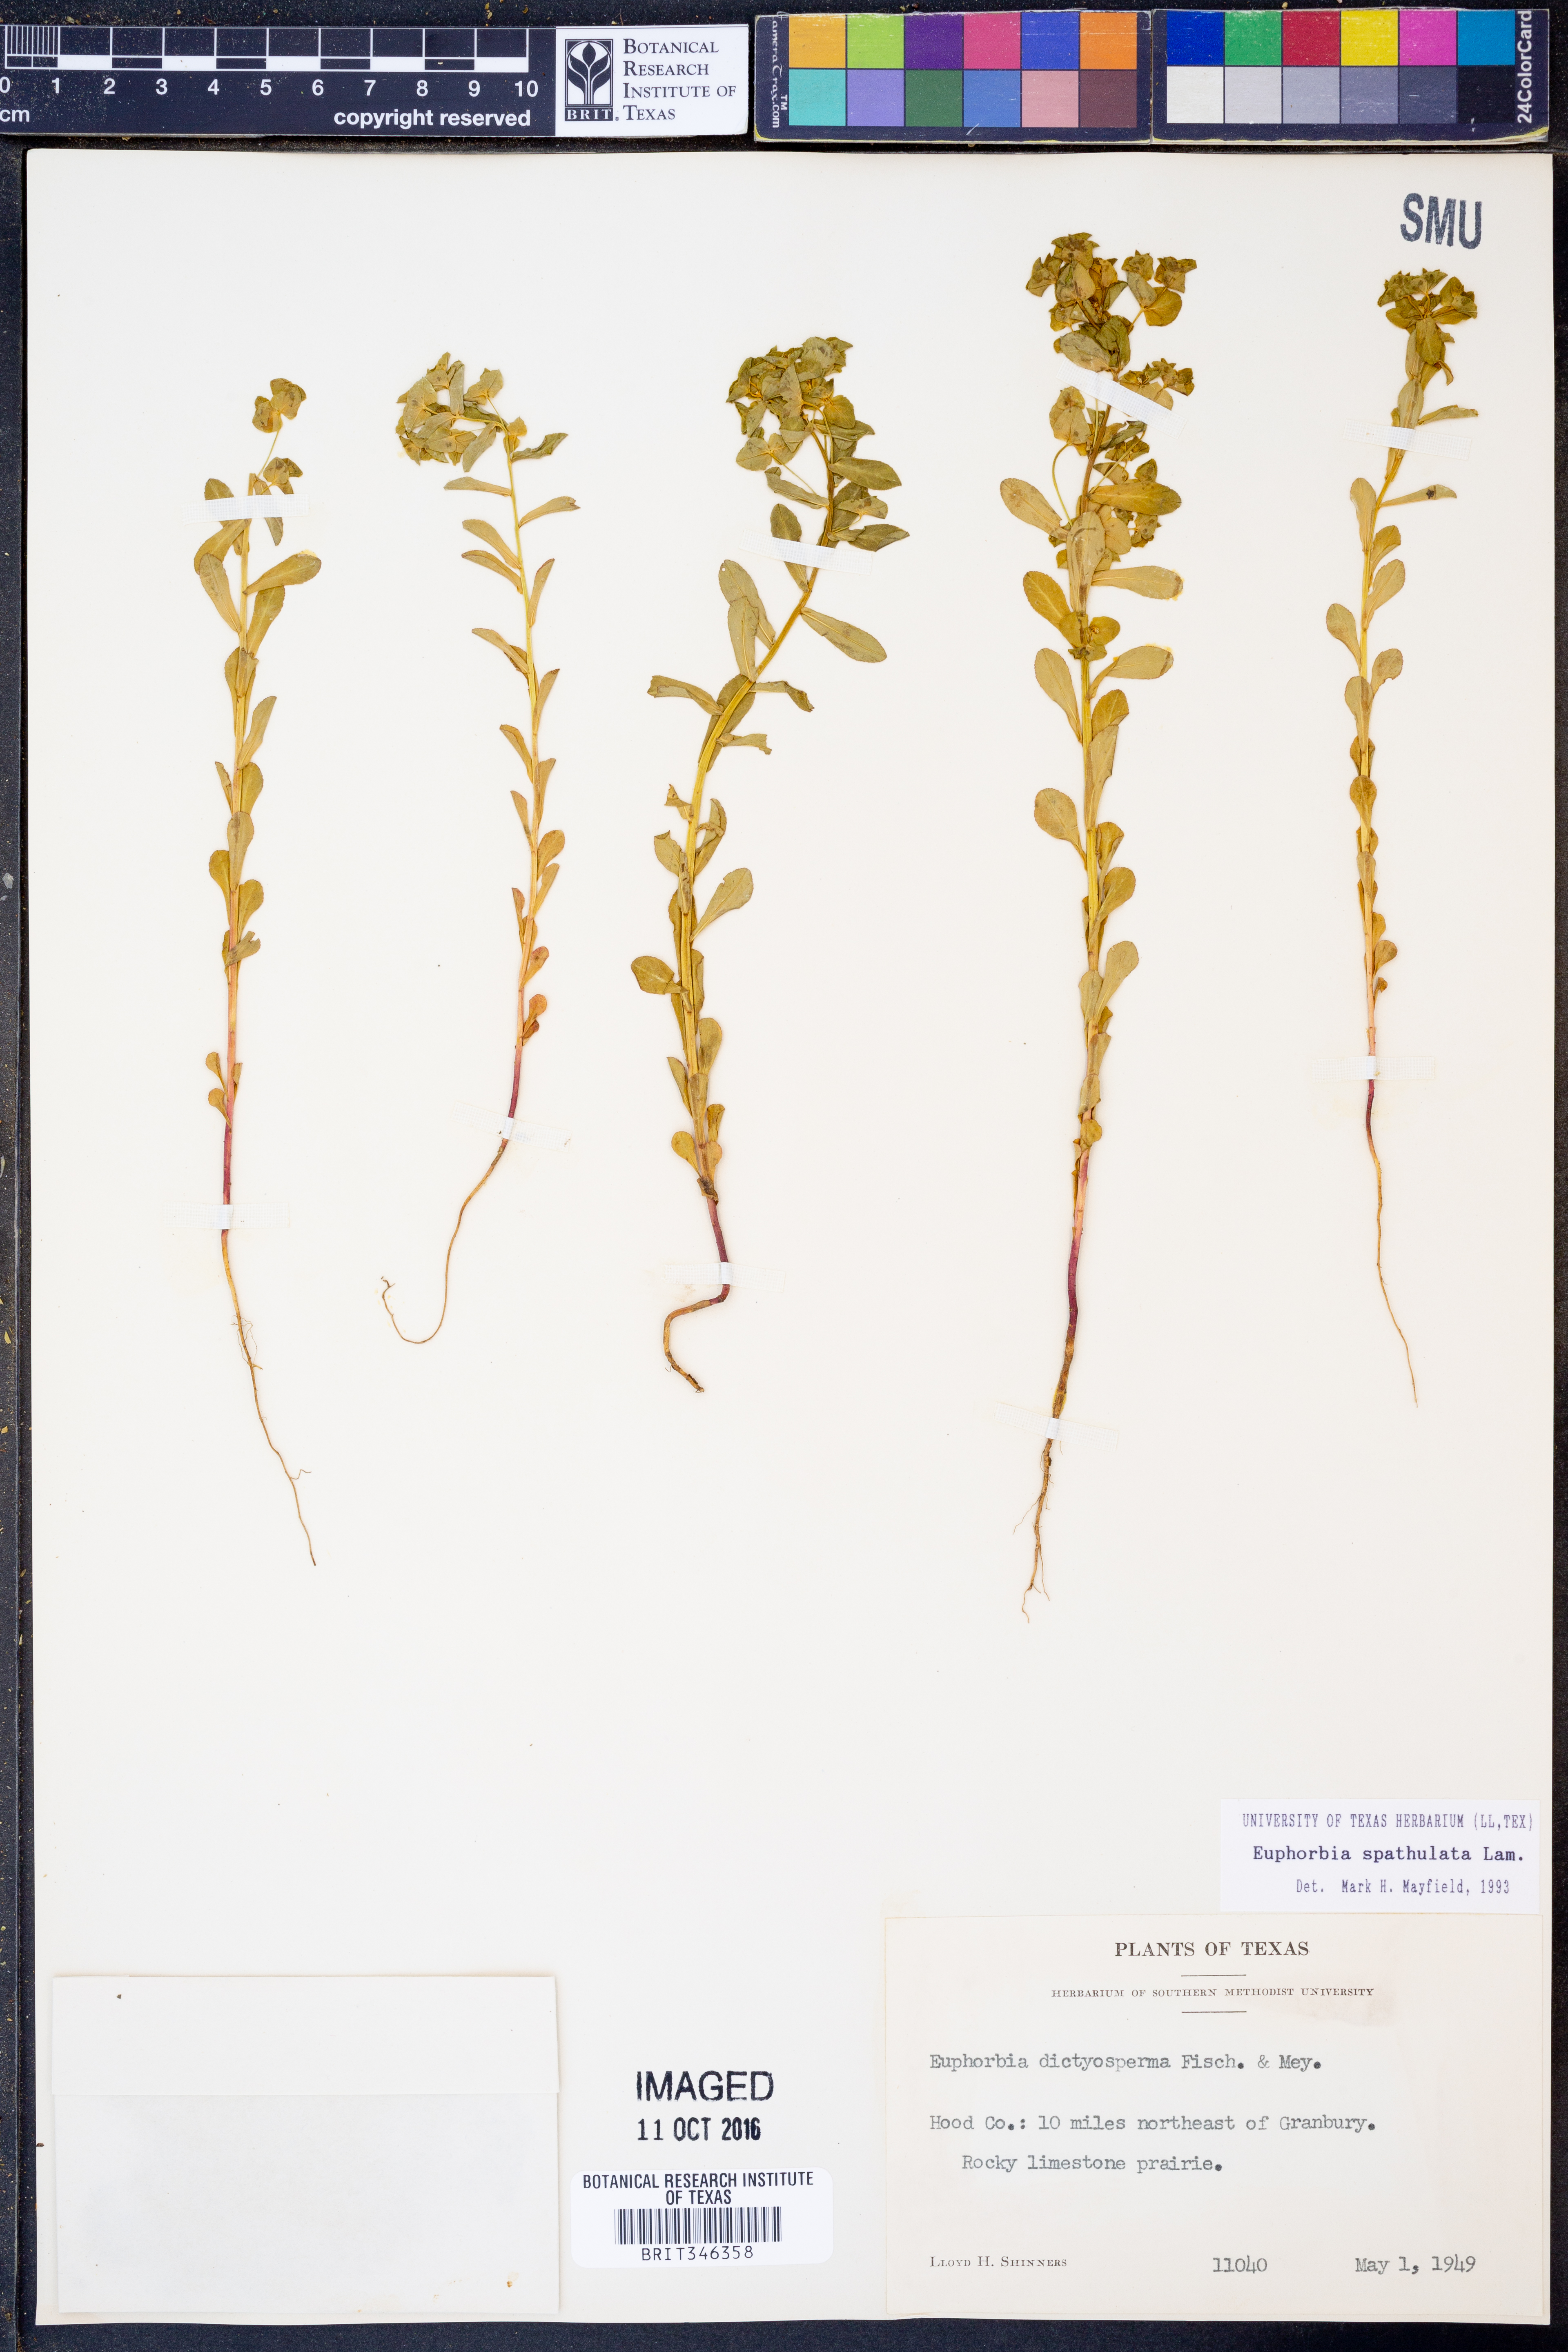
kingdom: Plantae
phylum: Tracheophyta
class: Magnoliopsida
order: Malpighiales
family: Euphorbiaceae
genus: Euphorbia
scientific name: Euphorbia spathulata
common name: Blunt spurge
